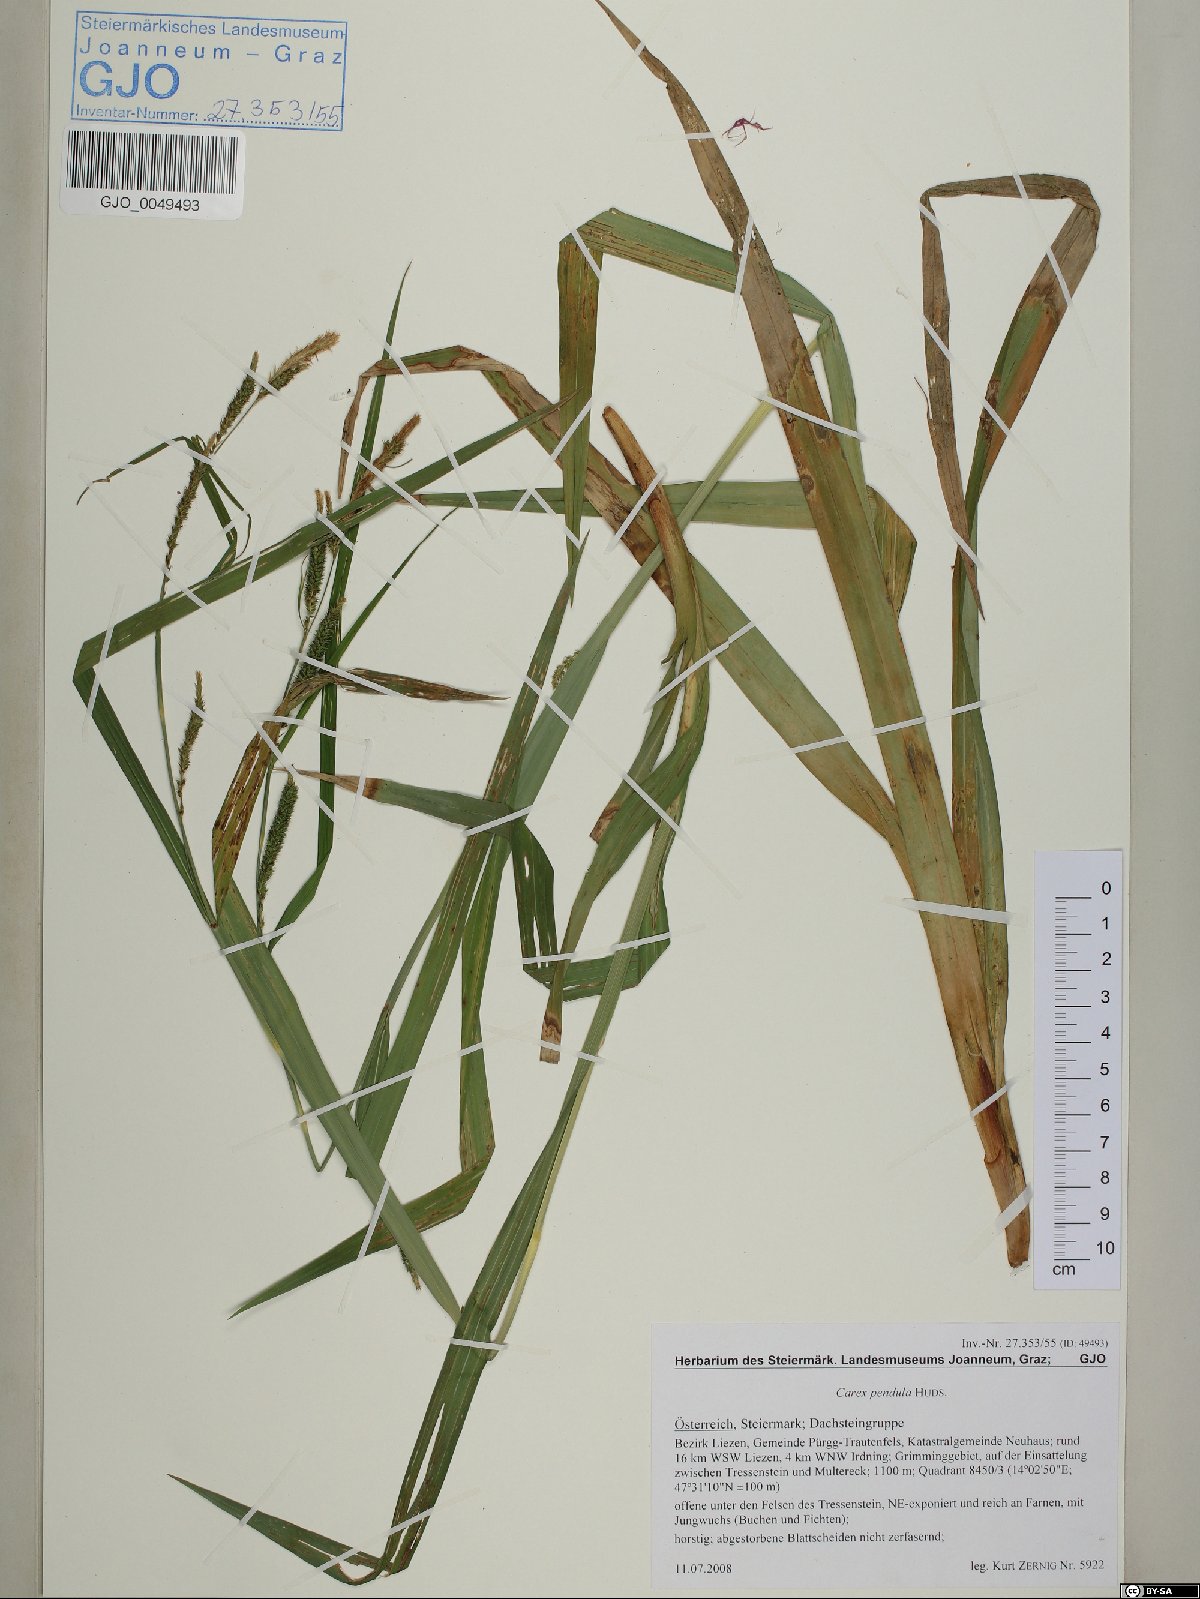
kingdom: Plantae
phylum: Tracheophyta
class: Liliopsida
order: Poales
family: Cyperaceae
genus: Carex
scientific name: Carex pendula
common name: Pendulous sedge
